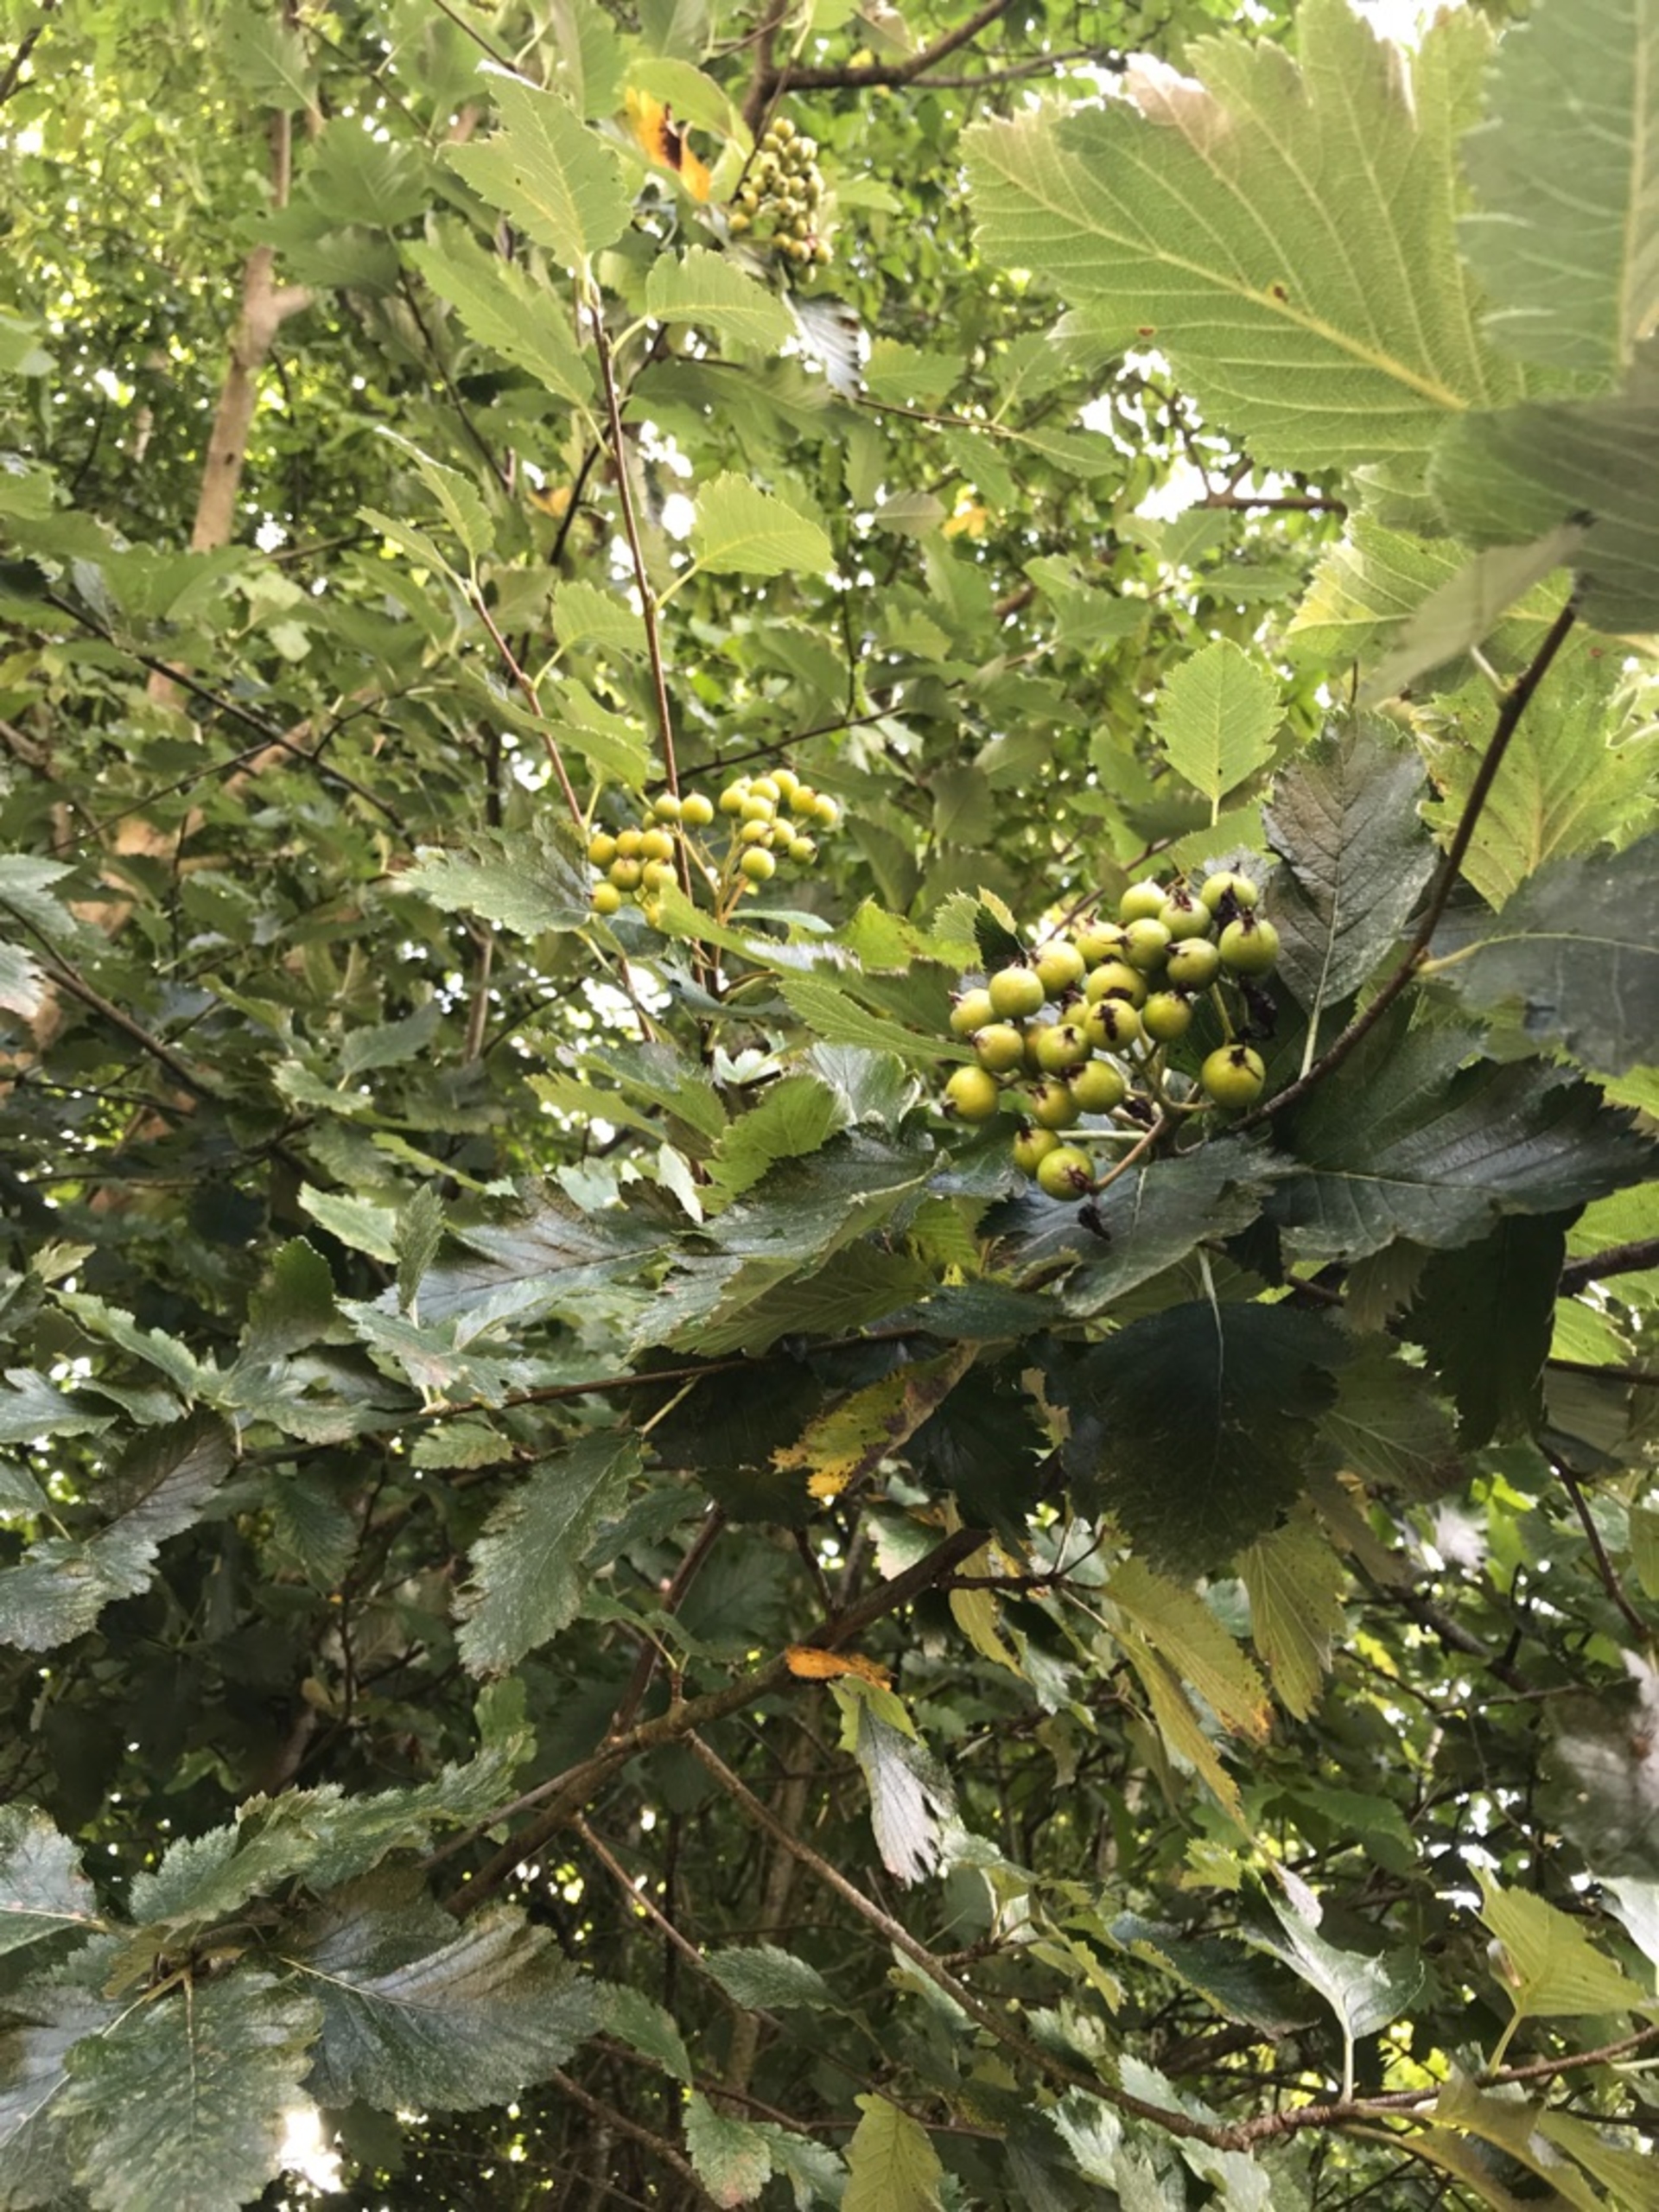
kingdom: Plantae
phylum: Tracheophyta
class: Magnoliopsida
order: Rosales
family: Rosaceae
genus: Karpatiosorbus
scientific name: Karpatiosorbus latifolia
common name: Bredbladet røn
